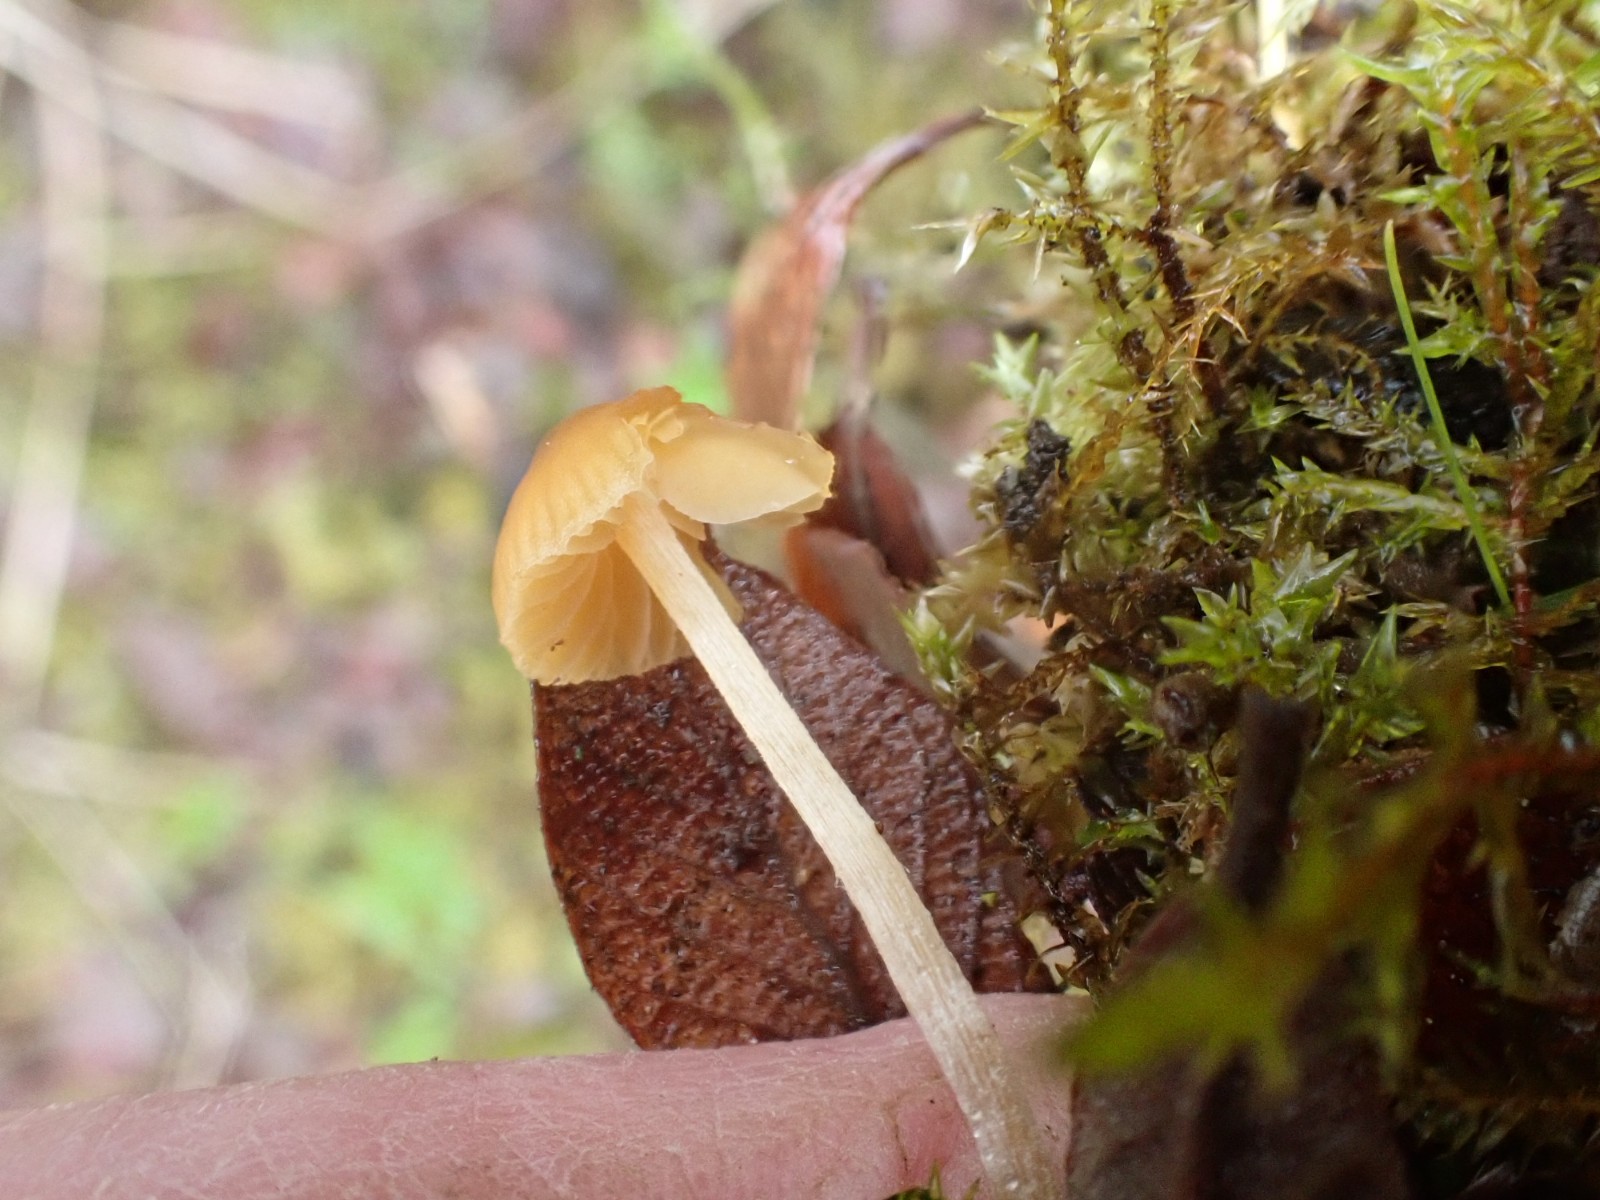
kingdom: Fungi
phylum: Basidiomycota
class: Agaricomycetes
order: Agaricales
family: Hymenogastraceae
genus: Galerina
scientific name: Galerina
